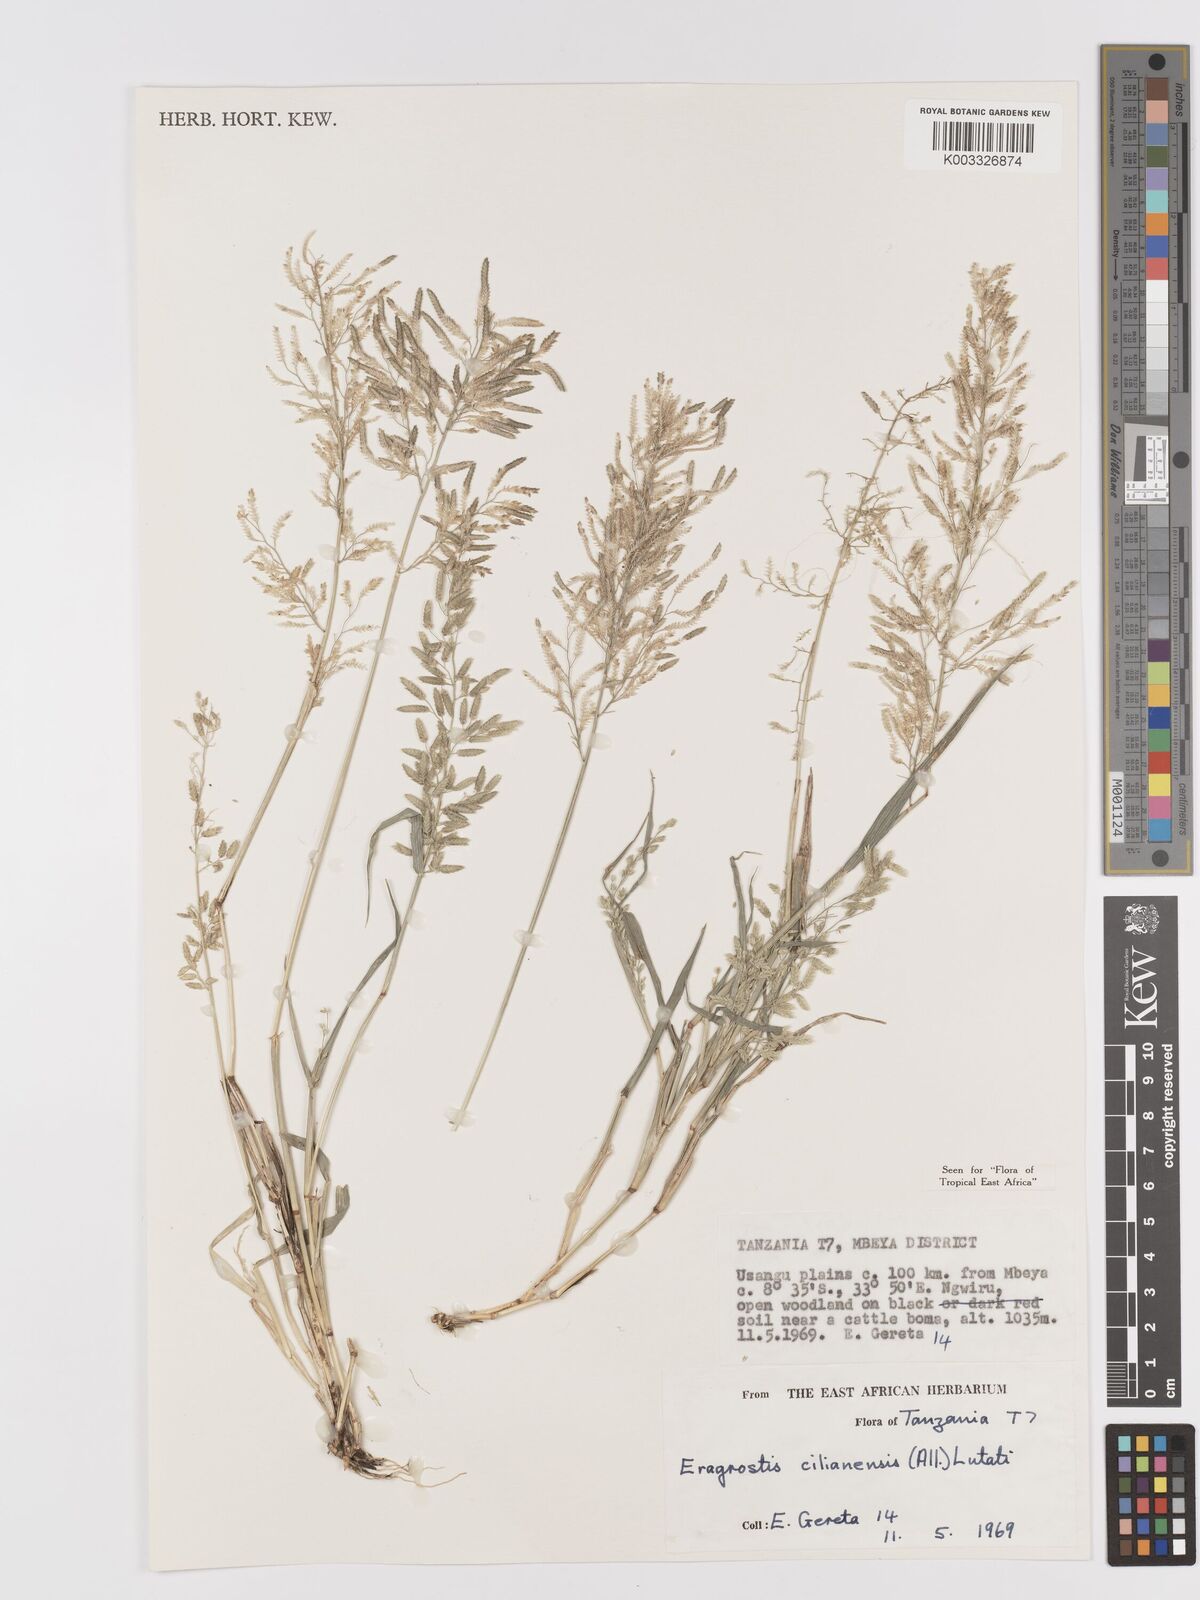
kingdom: Plantae
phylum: Tracheophyta
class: Liliopsida
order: Poales
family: Poaceae
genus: Eragrostis
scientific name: Eragrostis cilianensis
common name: Stinkgrass
